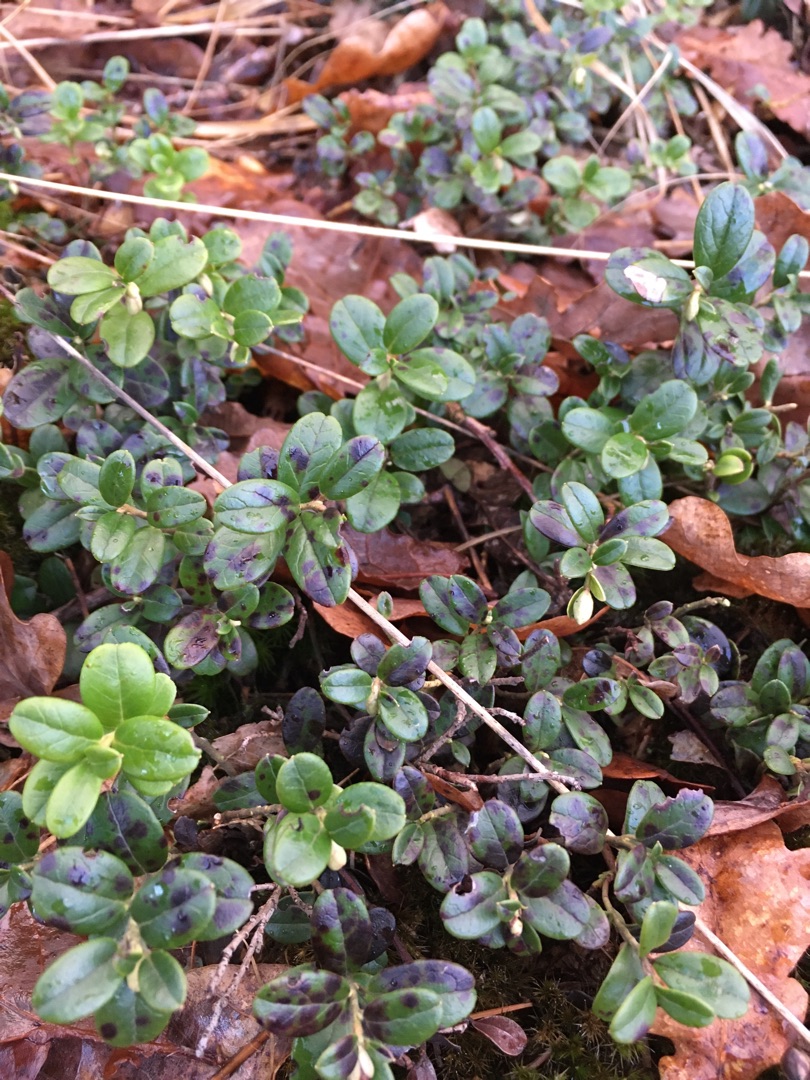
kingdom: Plantae
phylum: Tracheophyta
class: Magnoliopsida
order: Ericales
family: Ericaceae
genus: Vaccinium
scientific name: Vaccinium vitis-idaea
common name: Tyttebær
